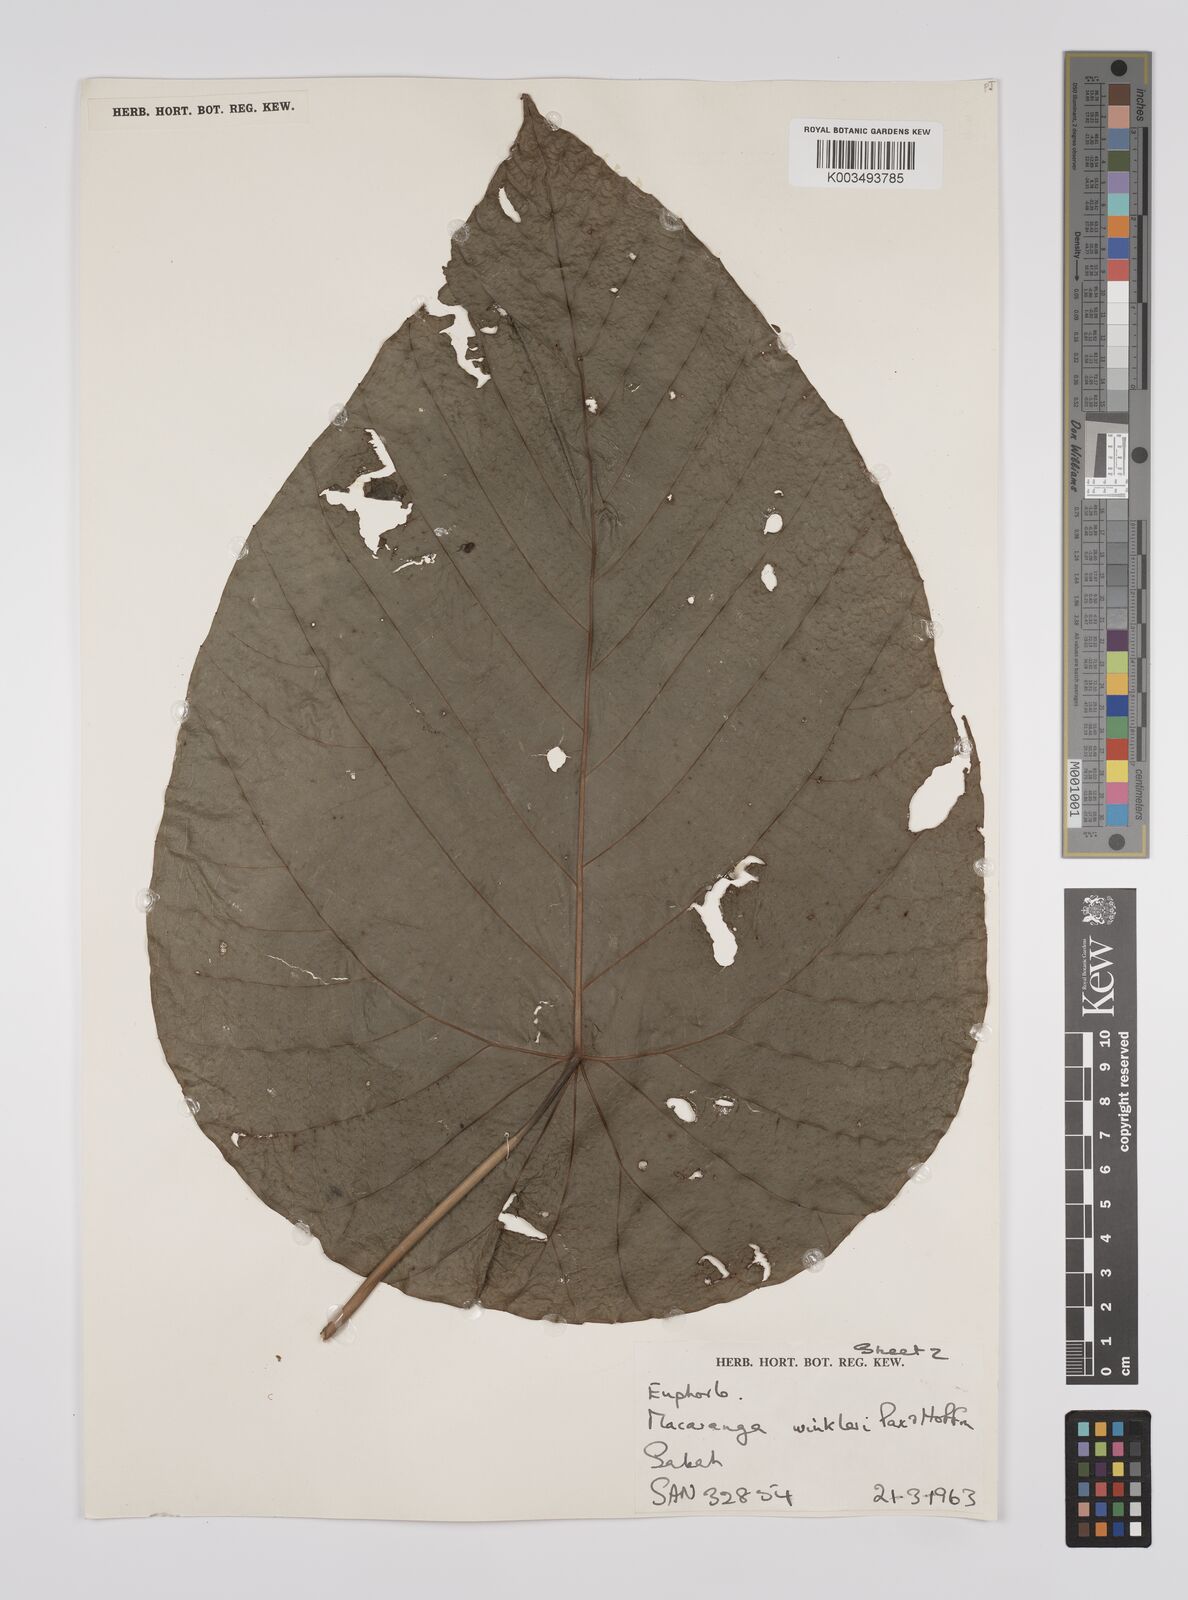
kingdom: Plantae
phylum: Tracheophyta
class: Magnoliopsida
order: Malpighiales
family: Euphorbiaceae
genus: Macaranga
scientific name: Macaranga winkleri
